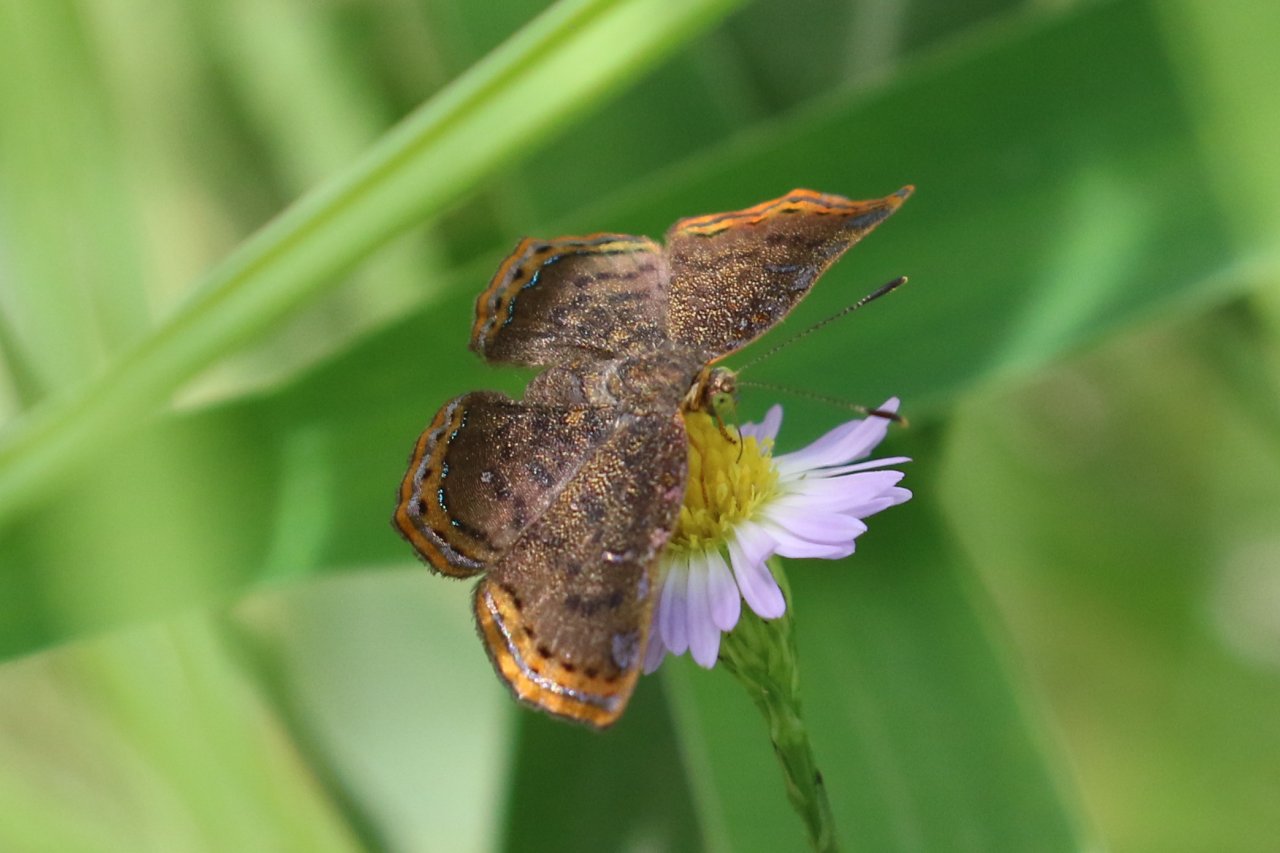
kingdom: Animalia
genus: Caria
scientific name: Caria ino
